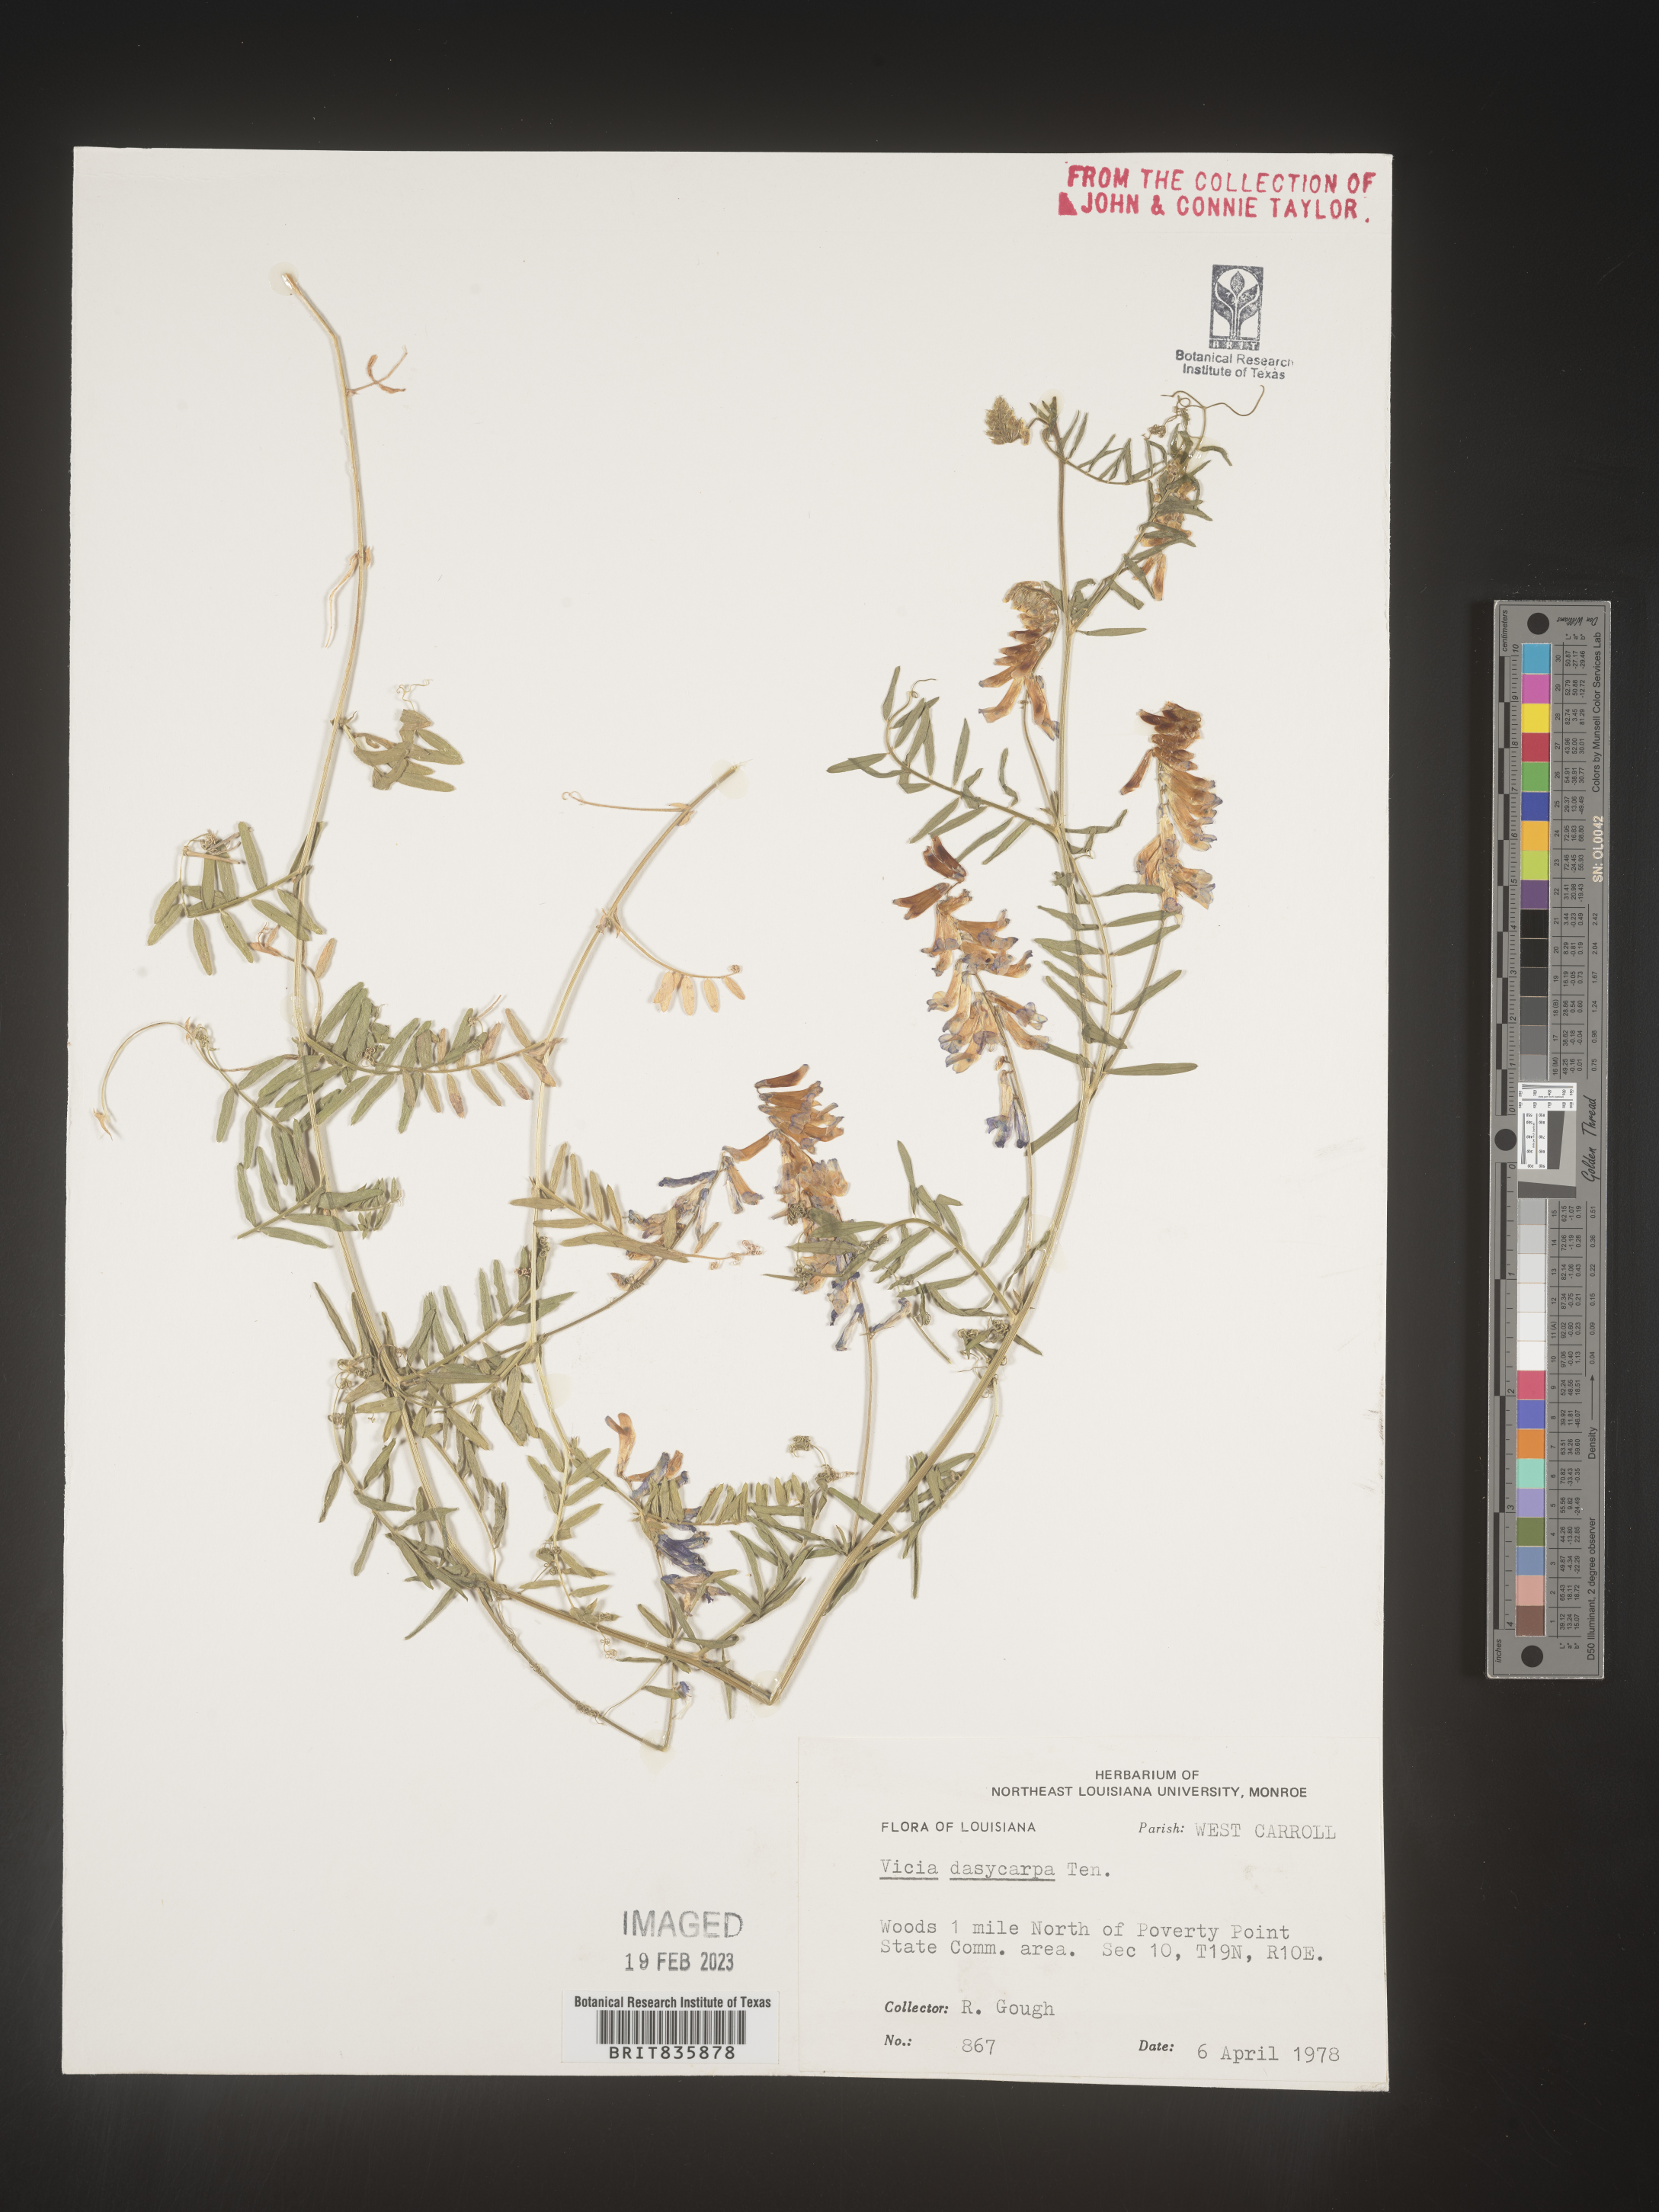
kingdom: Plantae
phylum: Tracheophyta
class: Magnoliopsida
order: Fabales
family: Fabaceae
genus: Vicia
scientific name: Vicia villosa
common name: Fodder vetch
